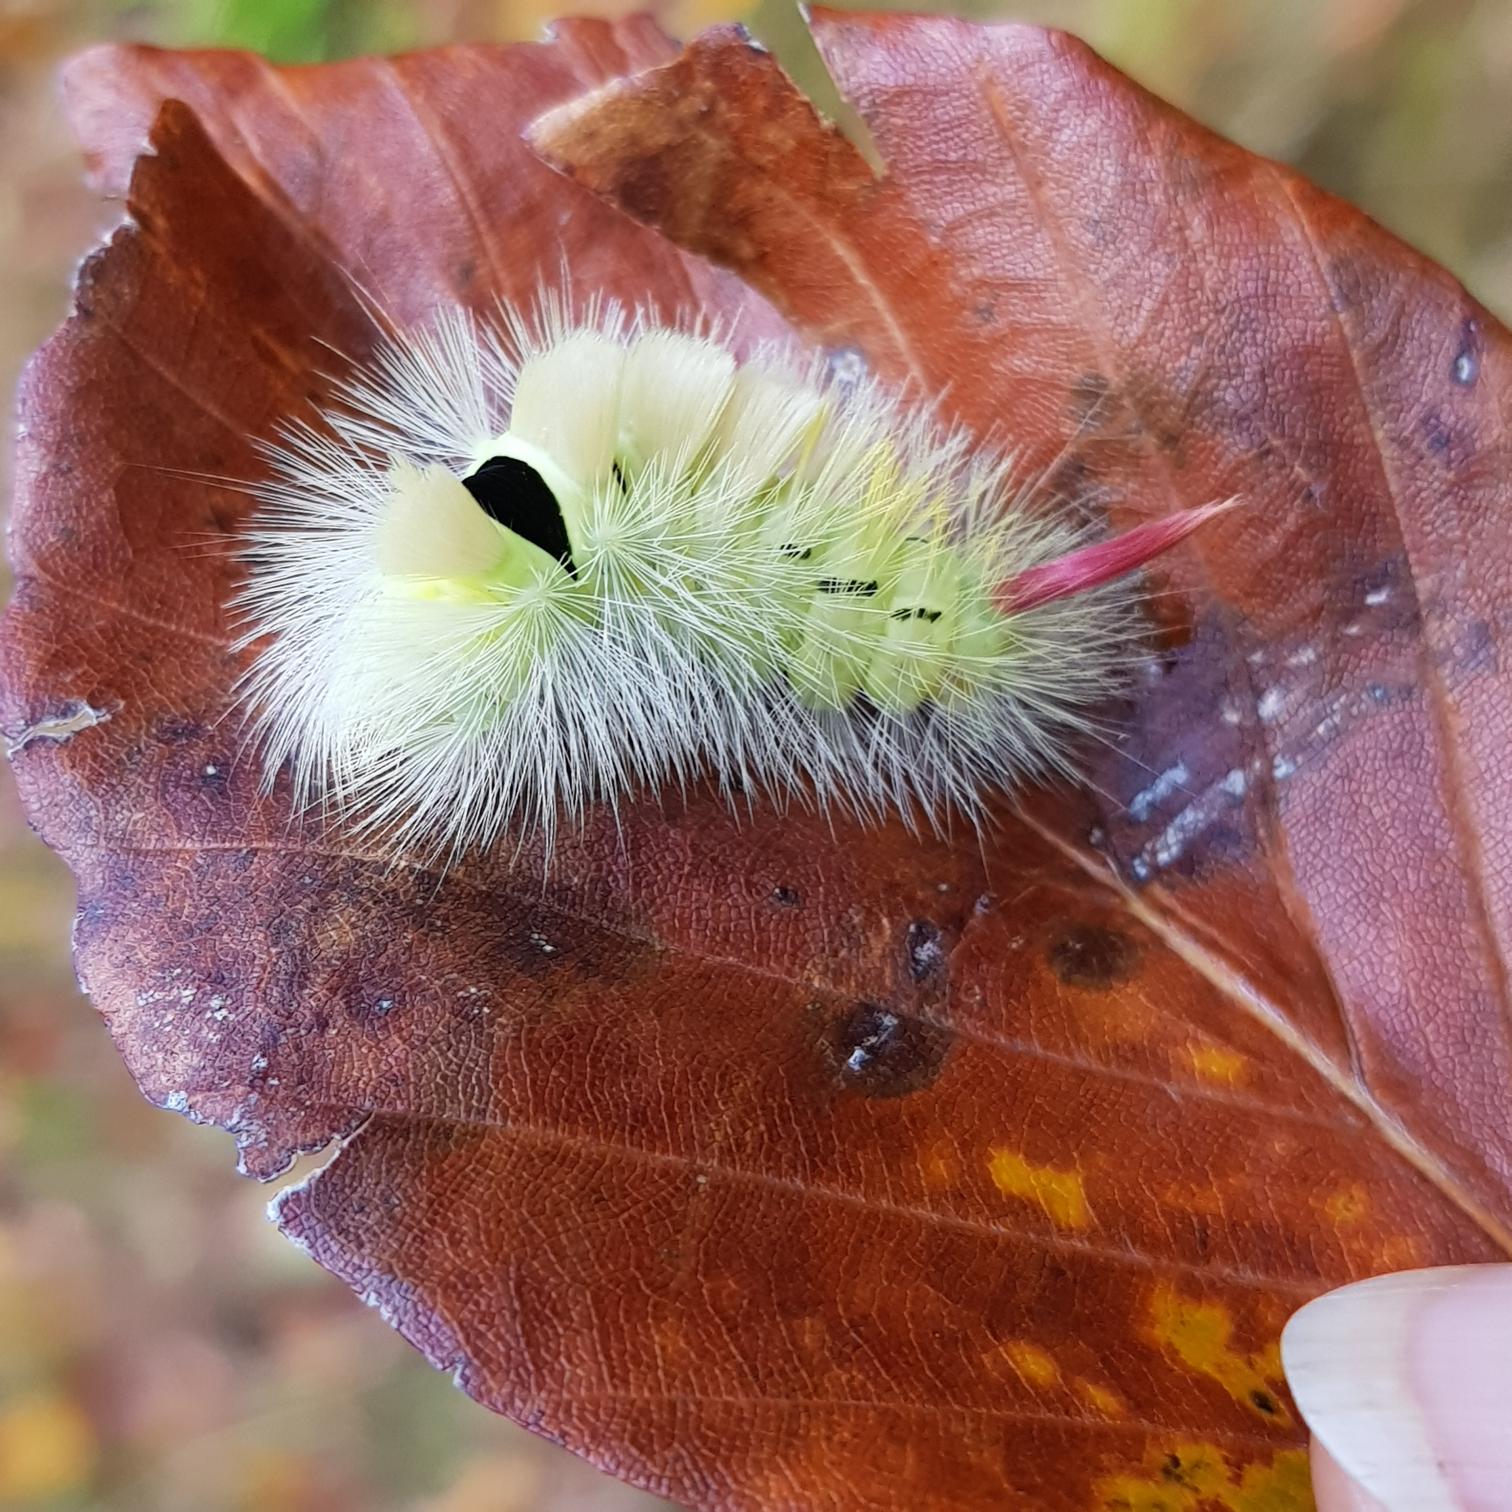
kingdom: Animalia
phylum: Arthropoda
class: Insecta
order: Lepidoptera
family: Erebidae
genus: Calliteara
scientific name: Calliteara pudibunda
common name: Bøgenonne
